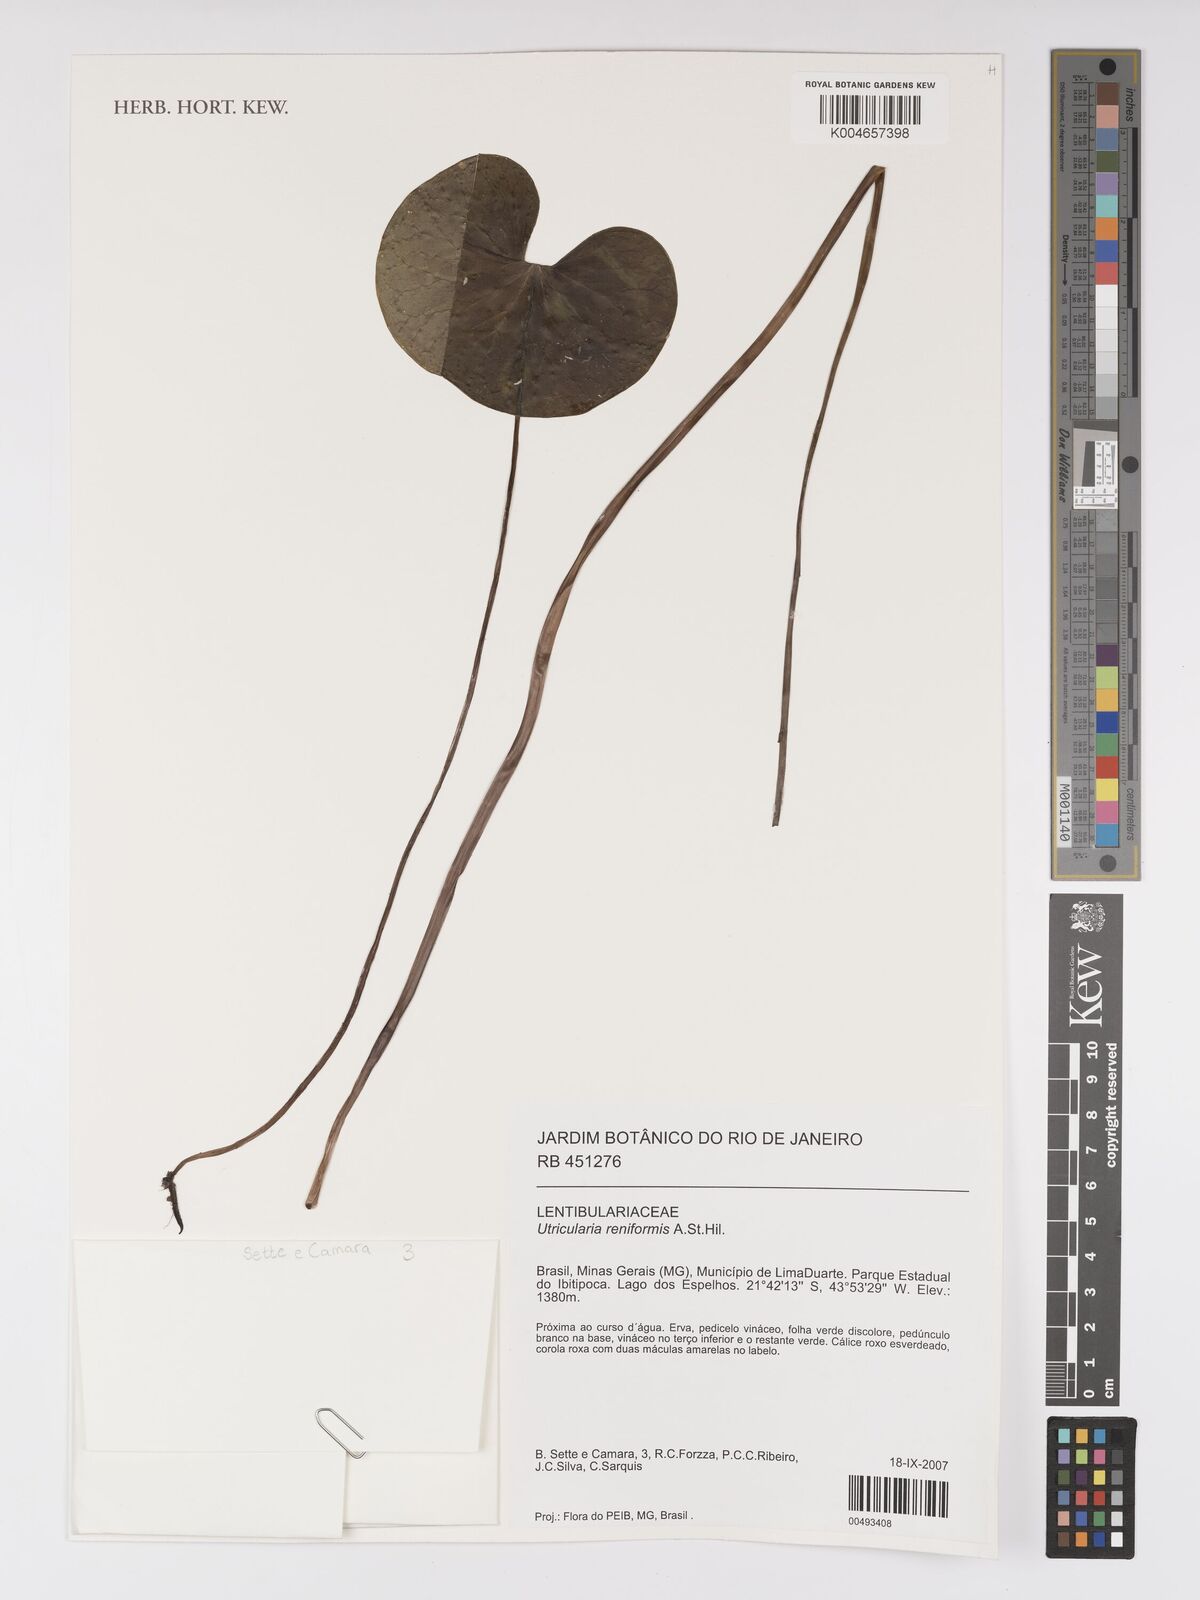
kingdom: Plantae
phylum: Tracheophyta
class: Magnoliopsida
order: Lamiales
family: Lentibulariaceae
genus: Utricularia
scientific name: Utricularia reniformis
